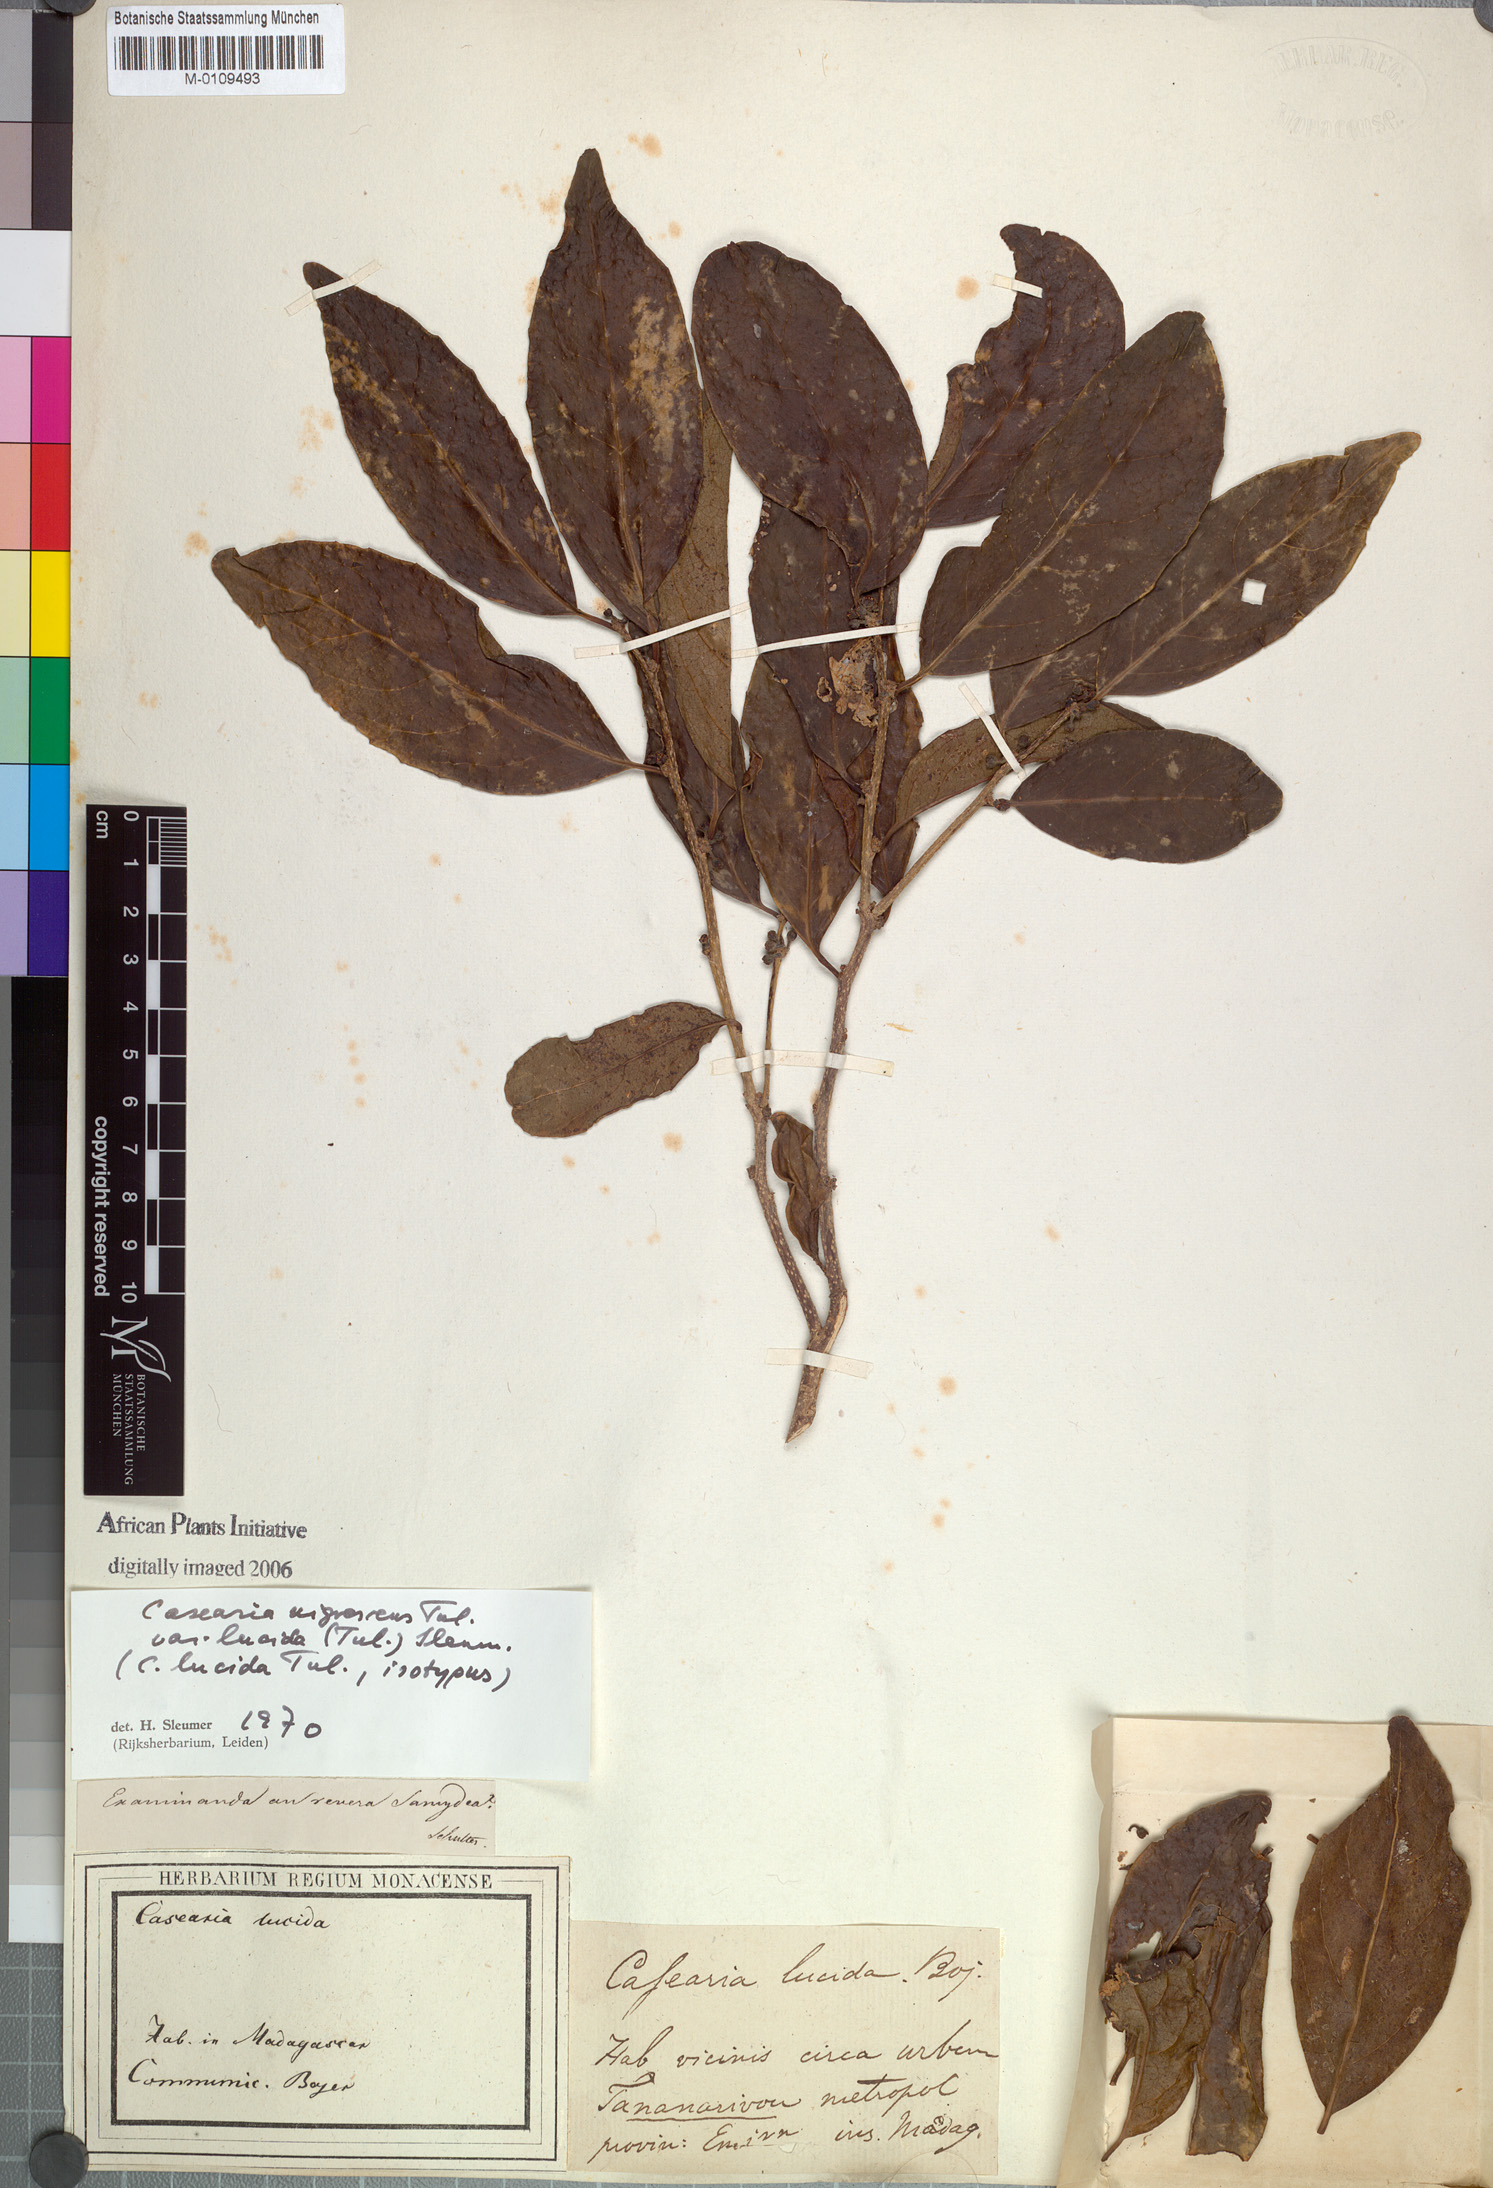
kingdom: Plantae
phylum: Tracheophyta
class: Magnoliopsida
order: Malpighiales
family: Salicaceae
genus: Casearia
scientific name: Casearia nigrescens
